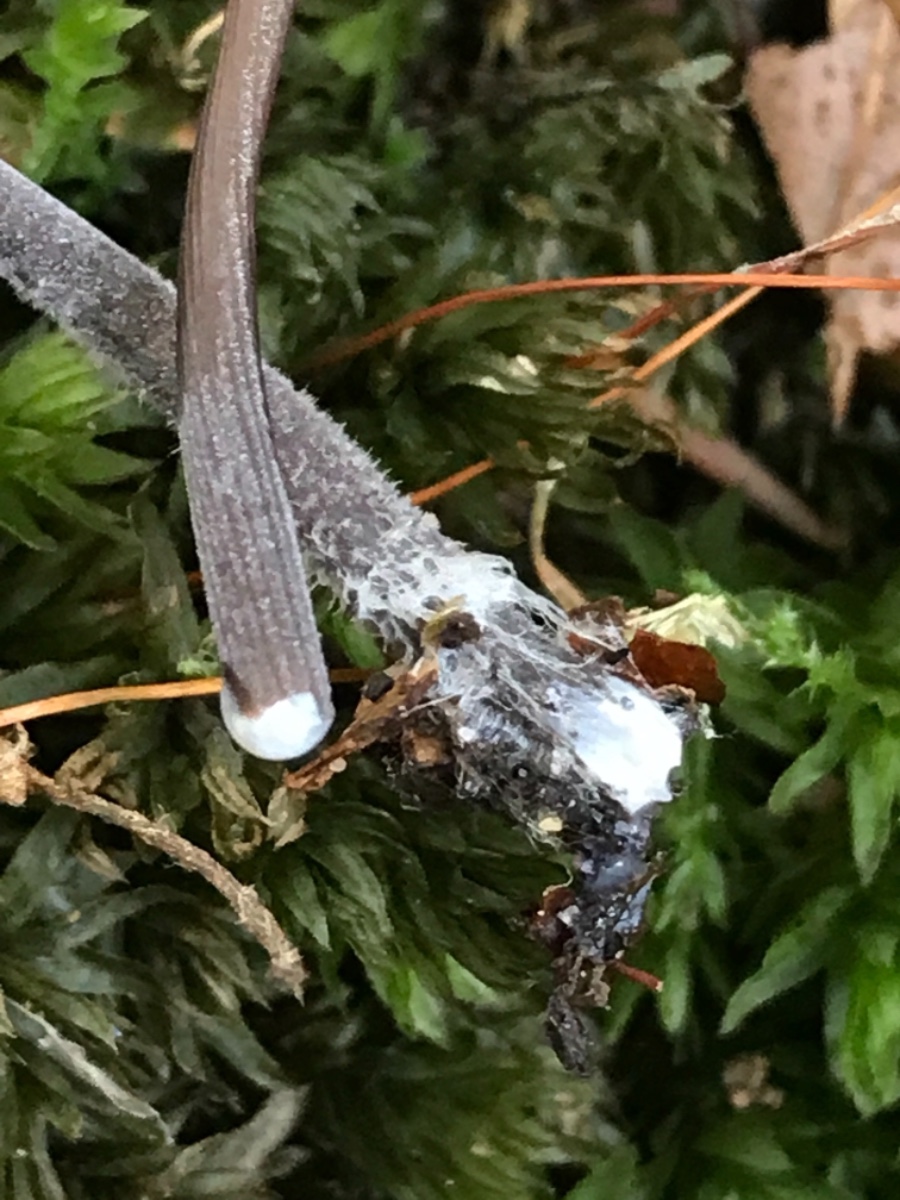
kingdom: Fungi
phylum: Basidiomycota
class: Agaricomycetes
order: Agaricales
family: Mycenaceae
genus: Mycena
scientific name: Mycena galopus
